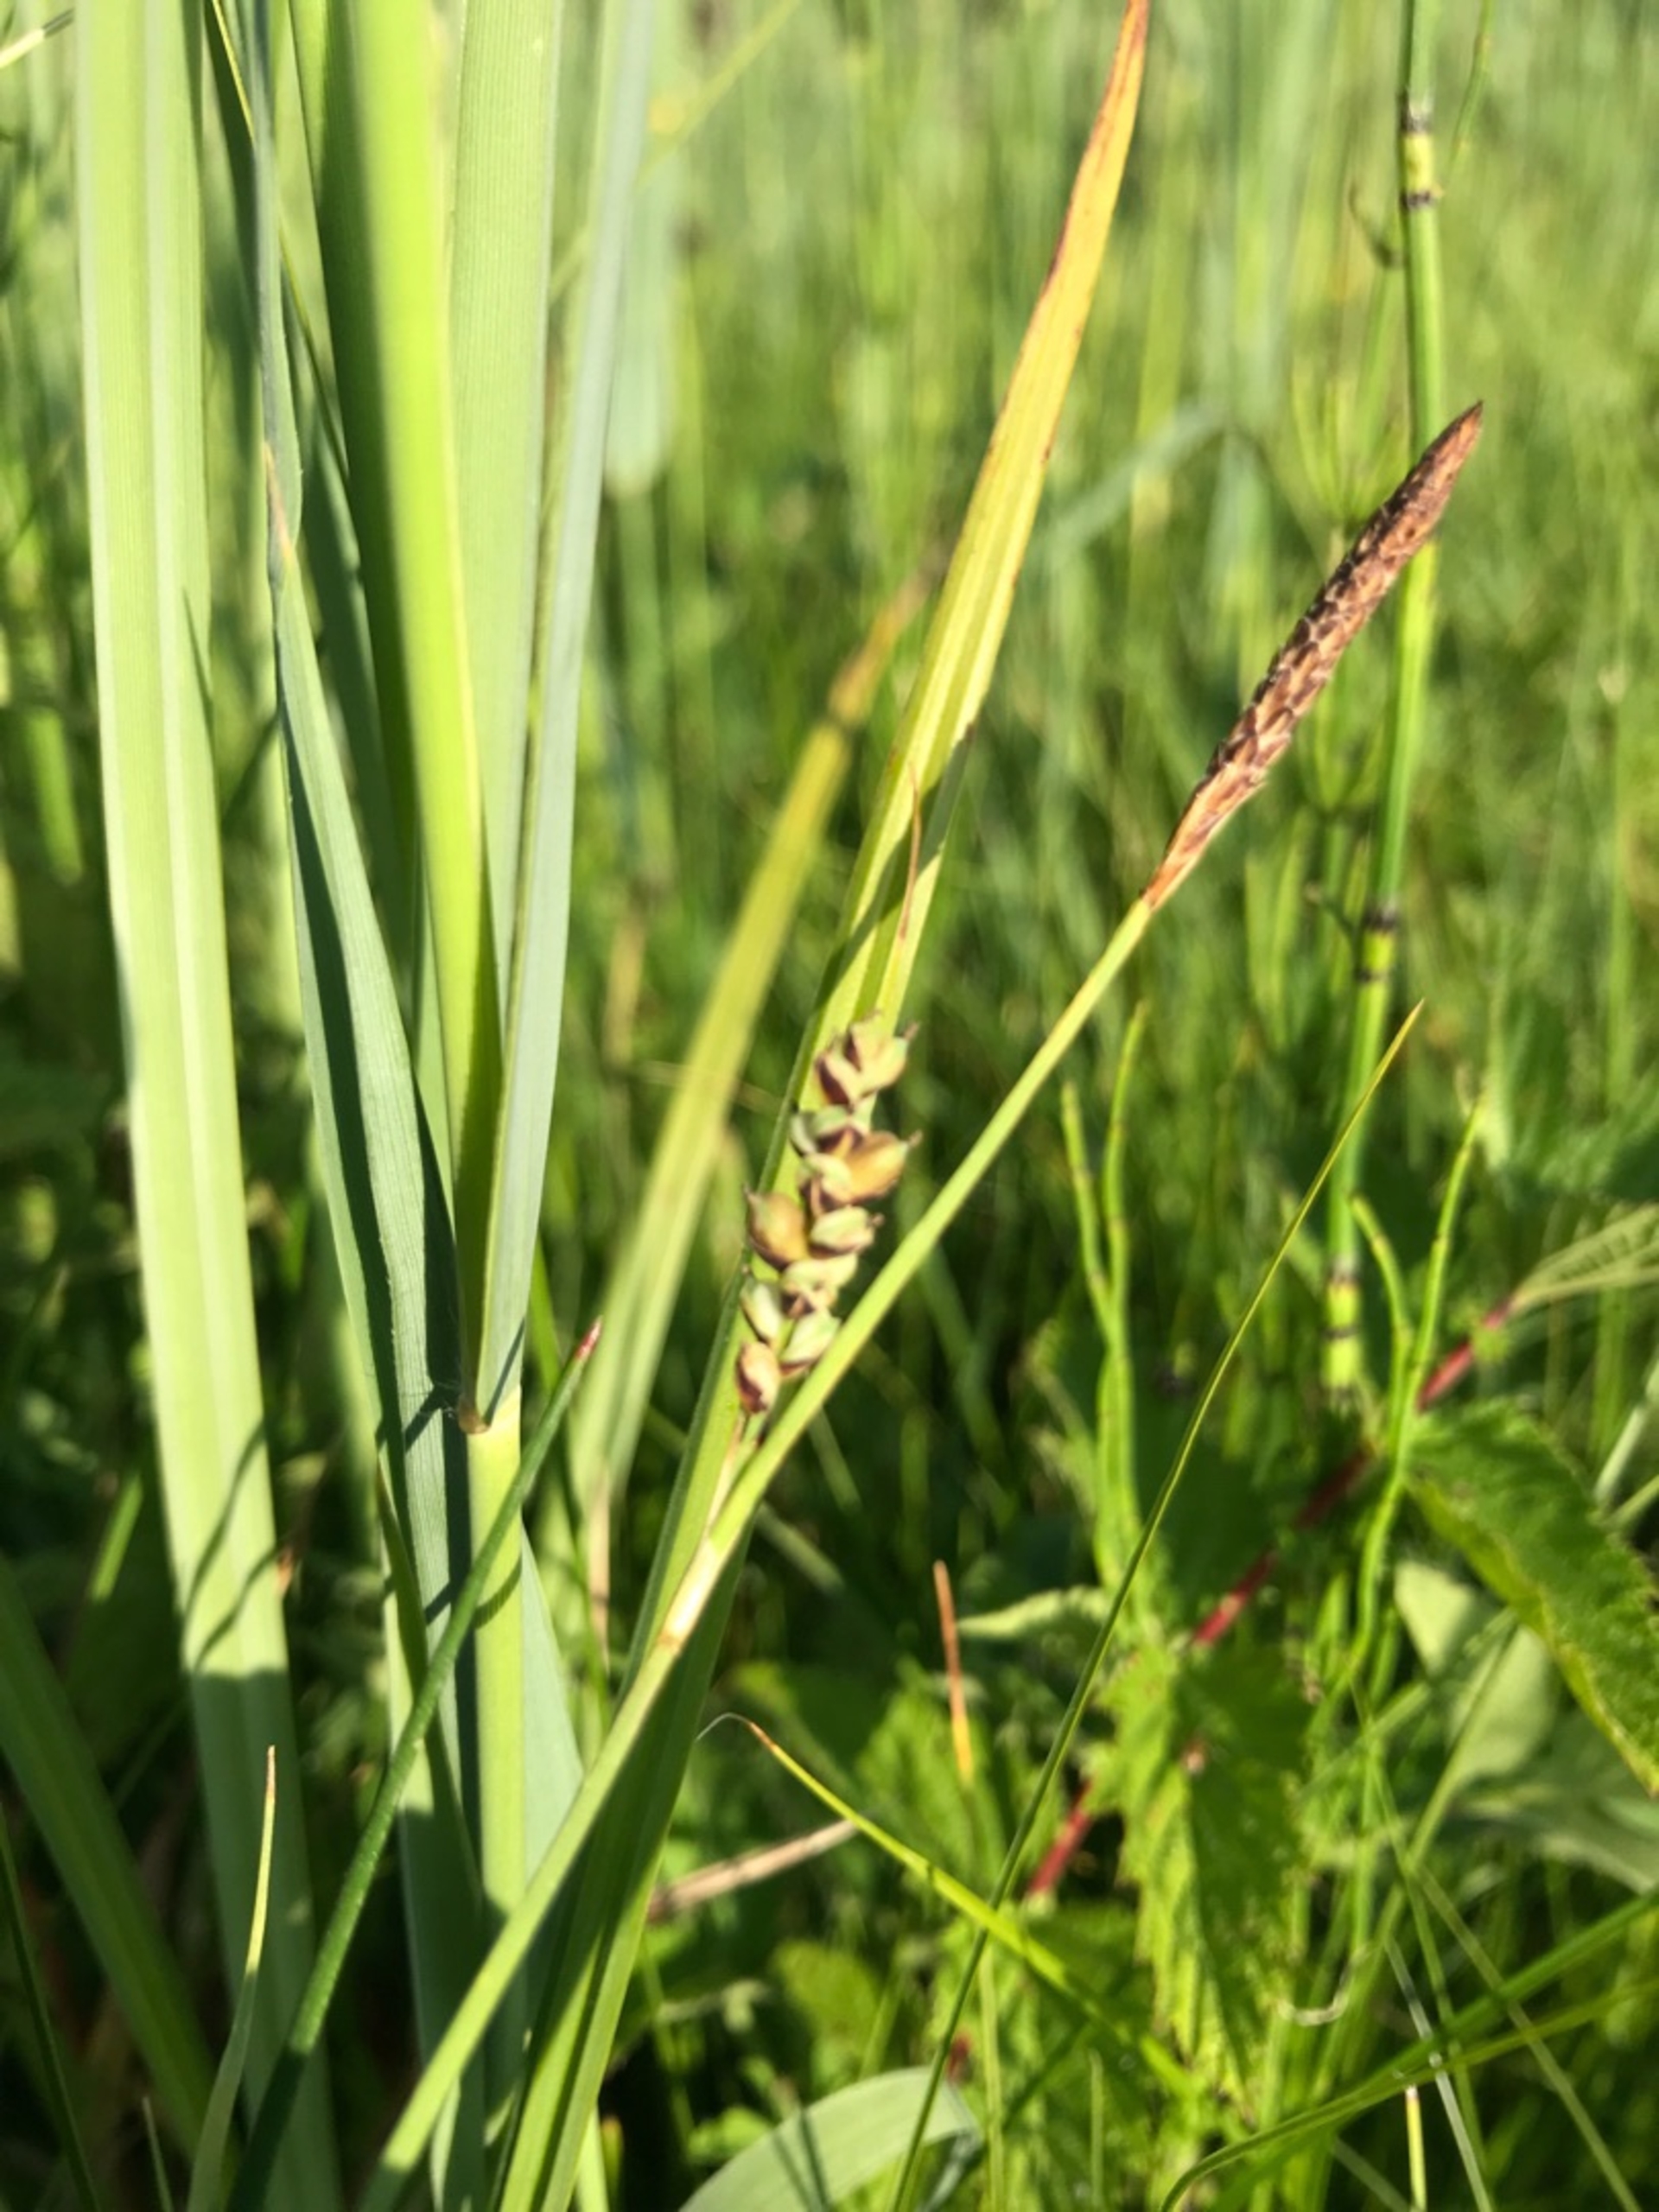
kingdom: Plantae
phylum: Tracheophyta
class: Liliopsida
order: Poales
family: Cyperaceae
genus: Carex
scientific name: Carex panicea
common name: Hirse-star
